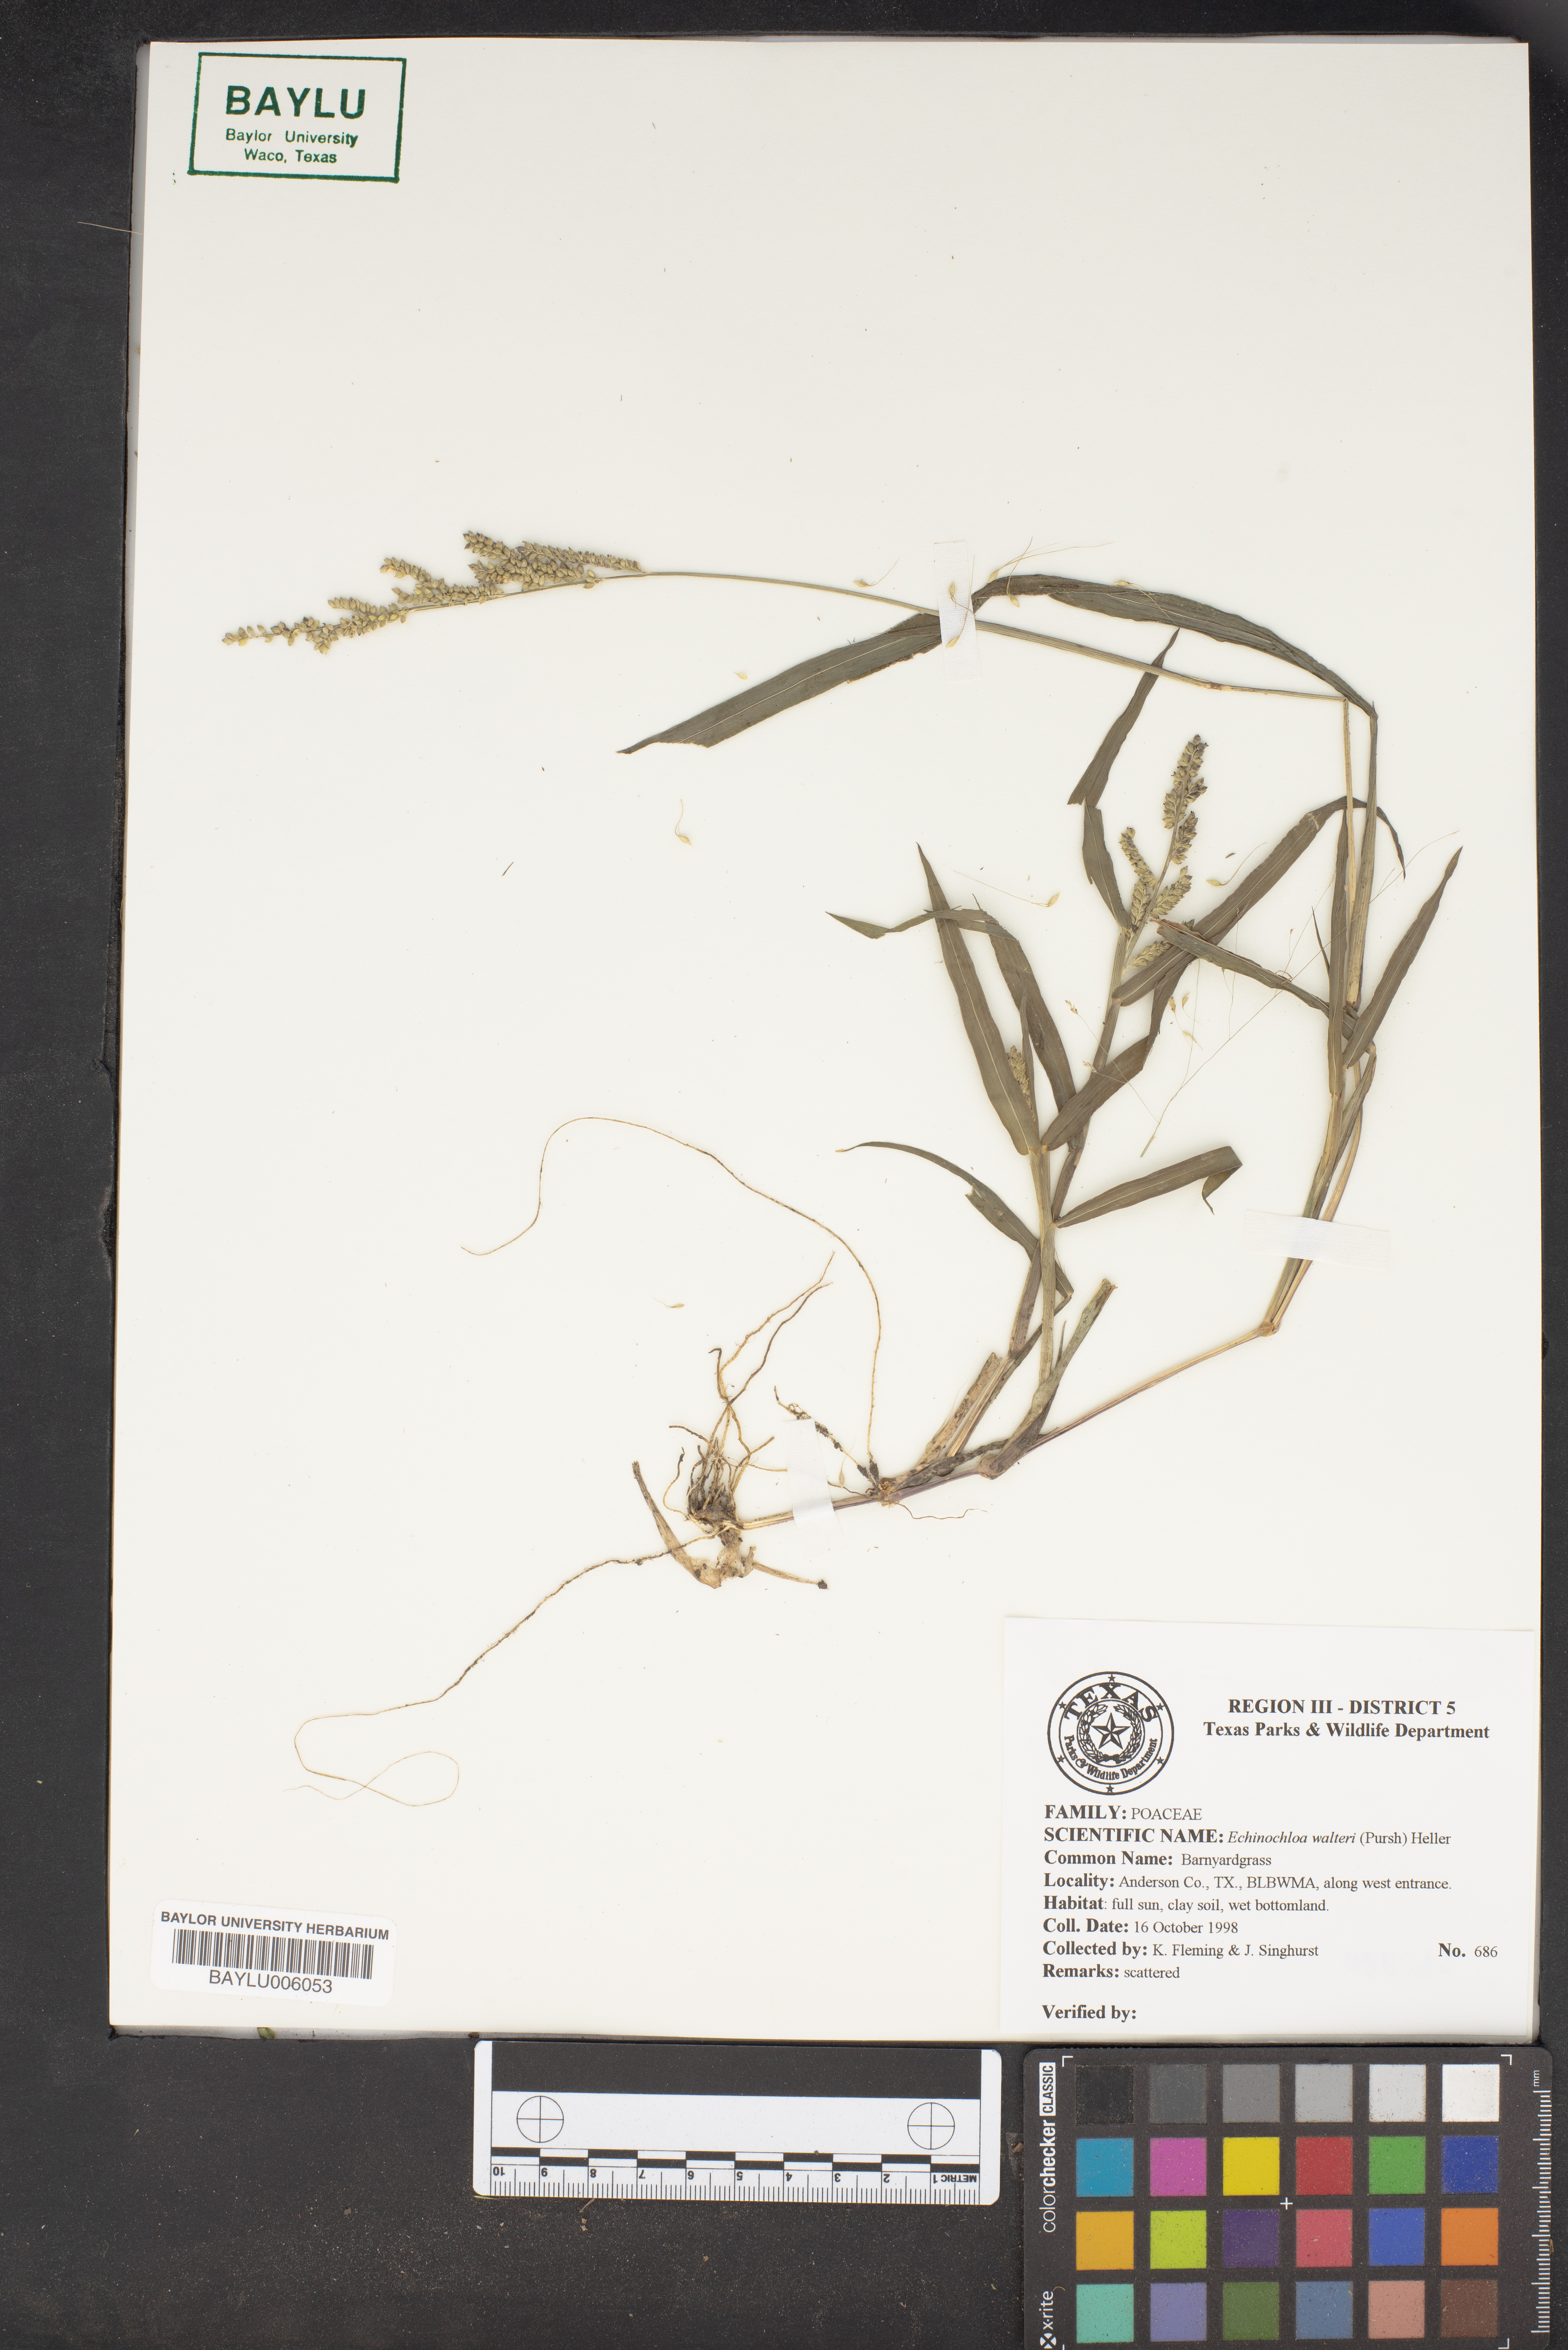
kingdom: Plantae
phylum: Tracheophyta
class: Liliopsida
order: Poales
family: Poaceae
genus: Echinochloa
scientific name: Echinochloa walteri
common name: Coast barnyard grass
